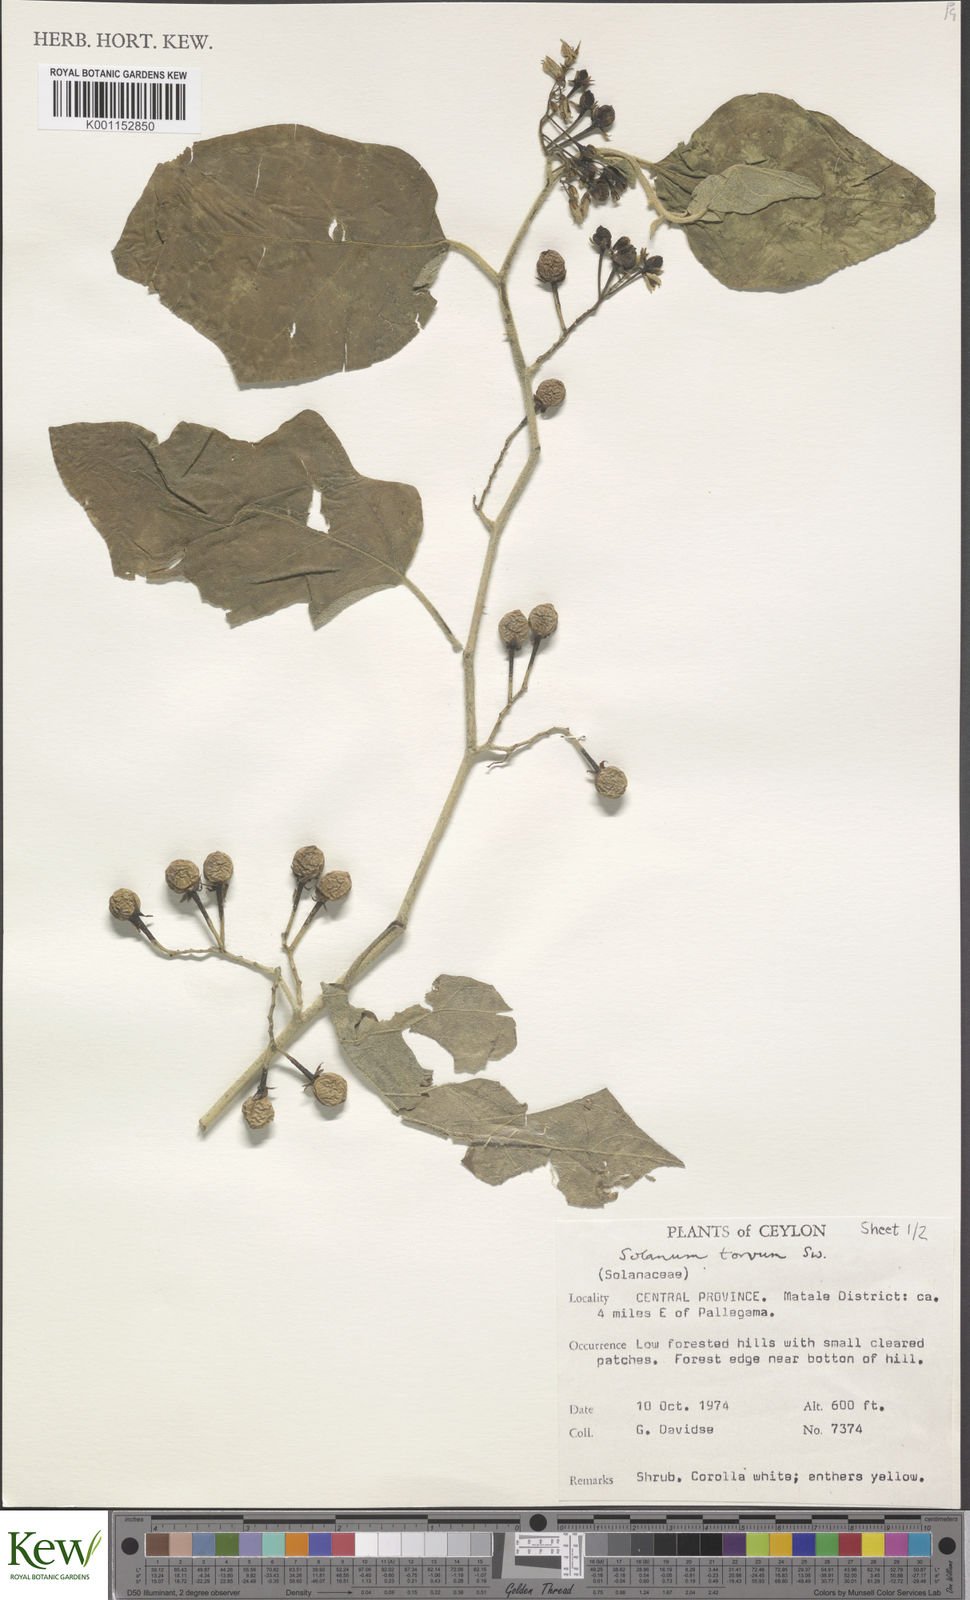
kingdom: Plantae
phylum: Tracheophyta
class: Magnoliopsida
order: Solanales
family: Solanaceae
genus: Solanum
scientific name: Solanum torvum
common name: Turkey berry
